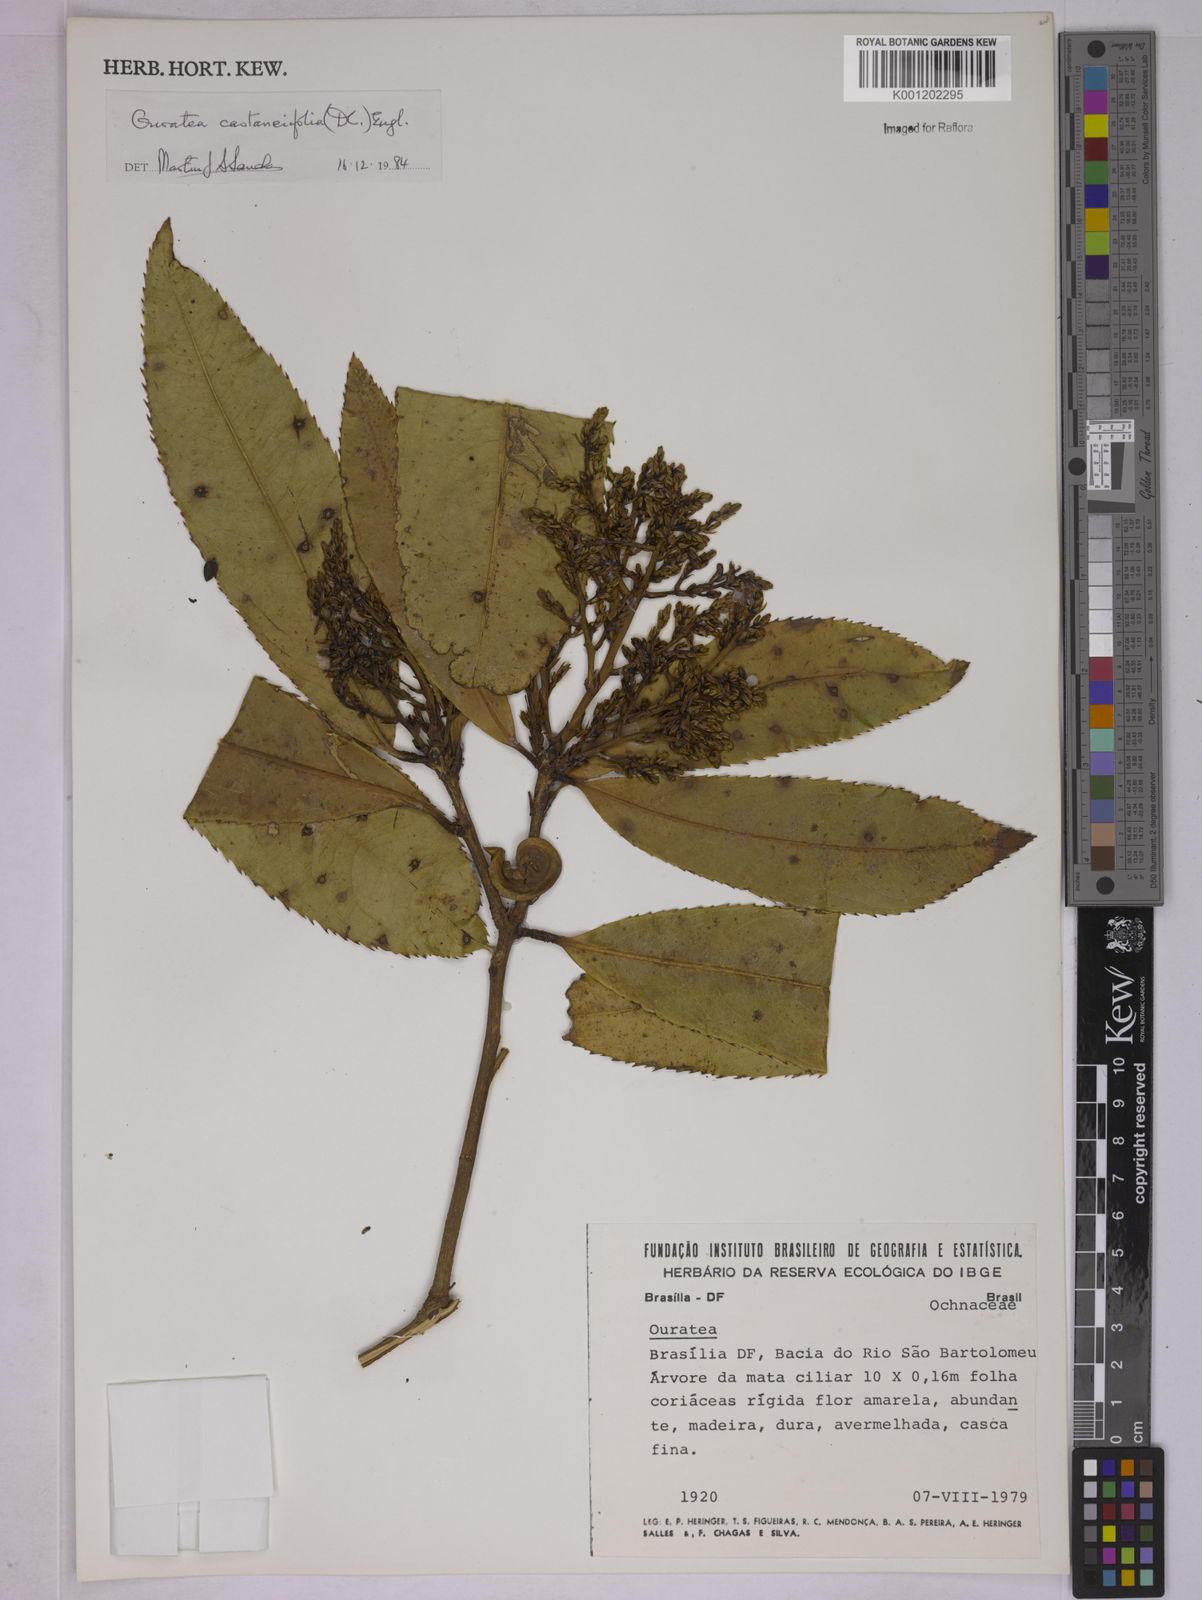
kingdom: Plantae
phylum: Tracheophyta
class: Magnoliopsida
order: Malpighiales
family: Ochnaceae
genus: Ouratea
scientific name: Ouratea
